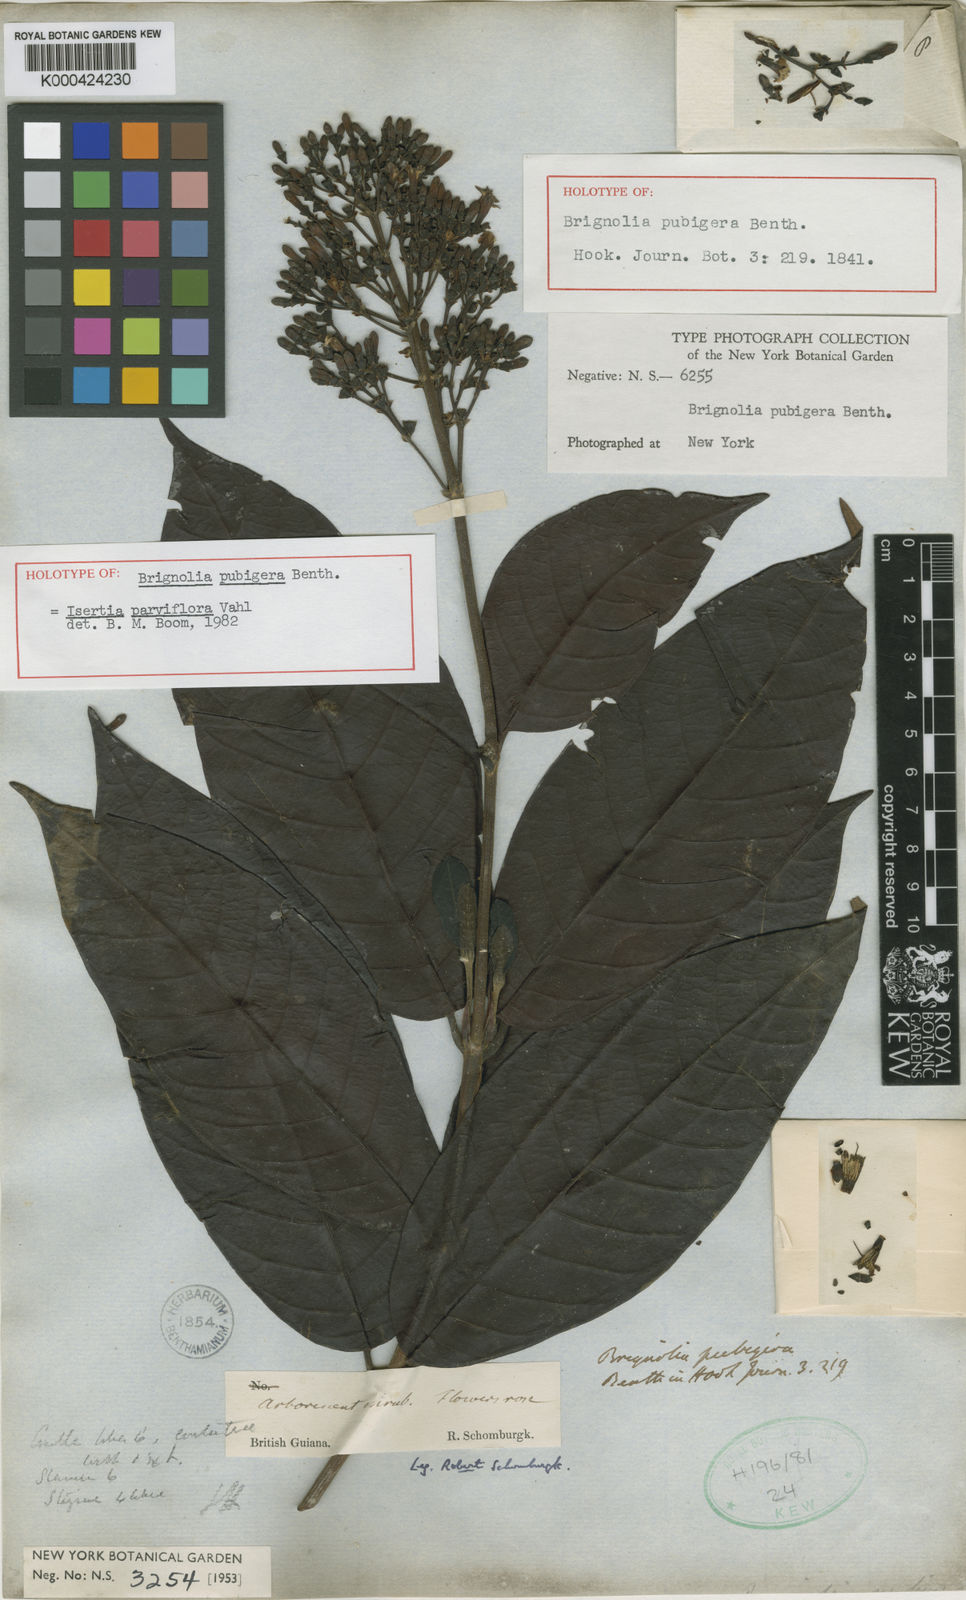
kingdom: Plantae
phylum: Tracheophyta
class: Magnoliopsida
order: Gentianales
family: Rubiaceae
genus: Isertia
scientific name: Isertia parviflora
